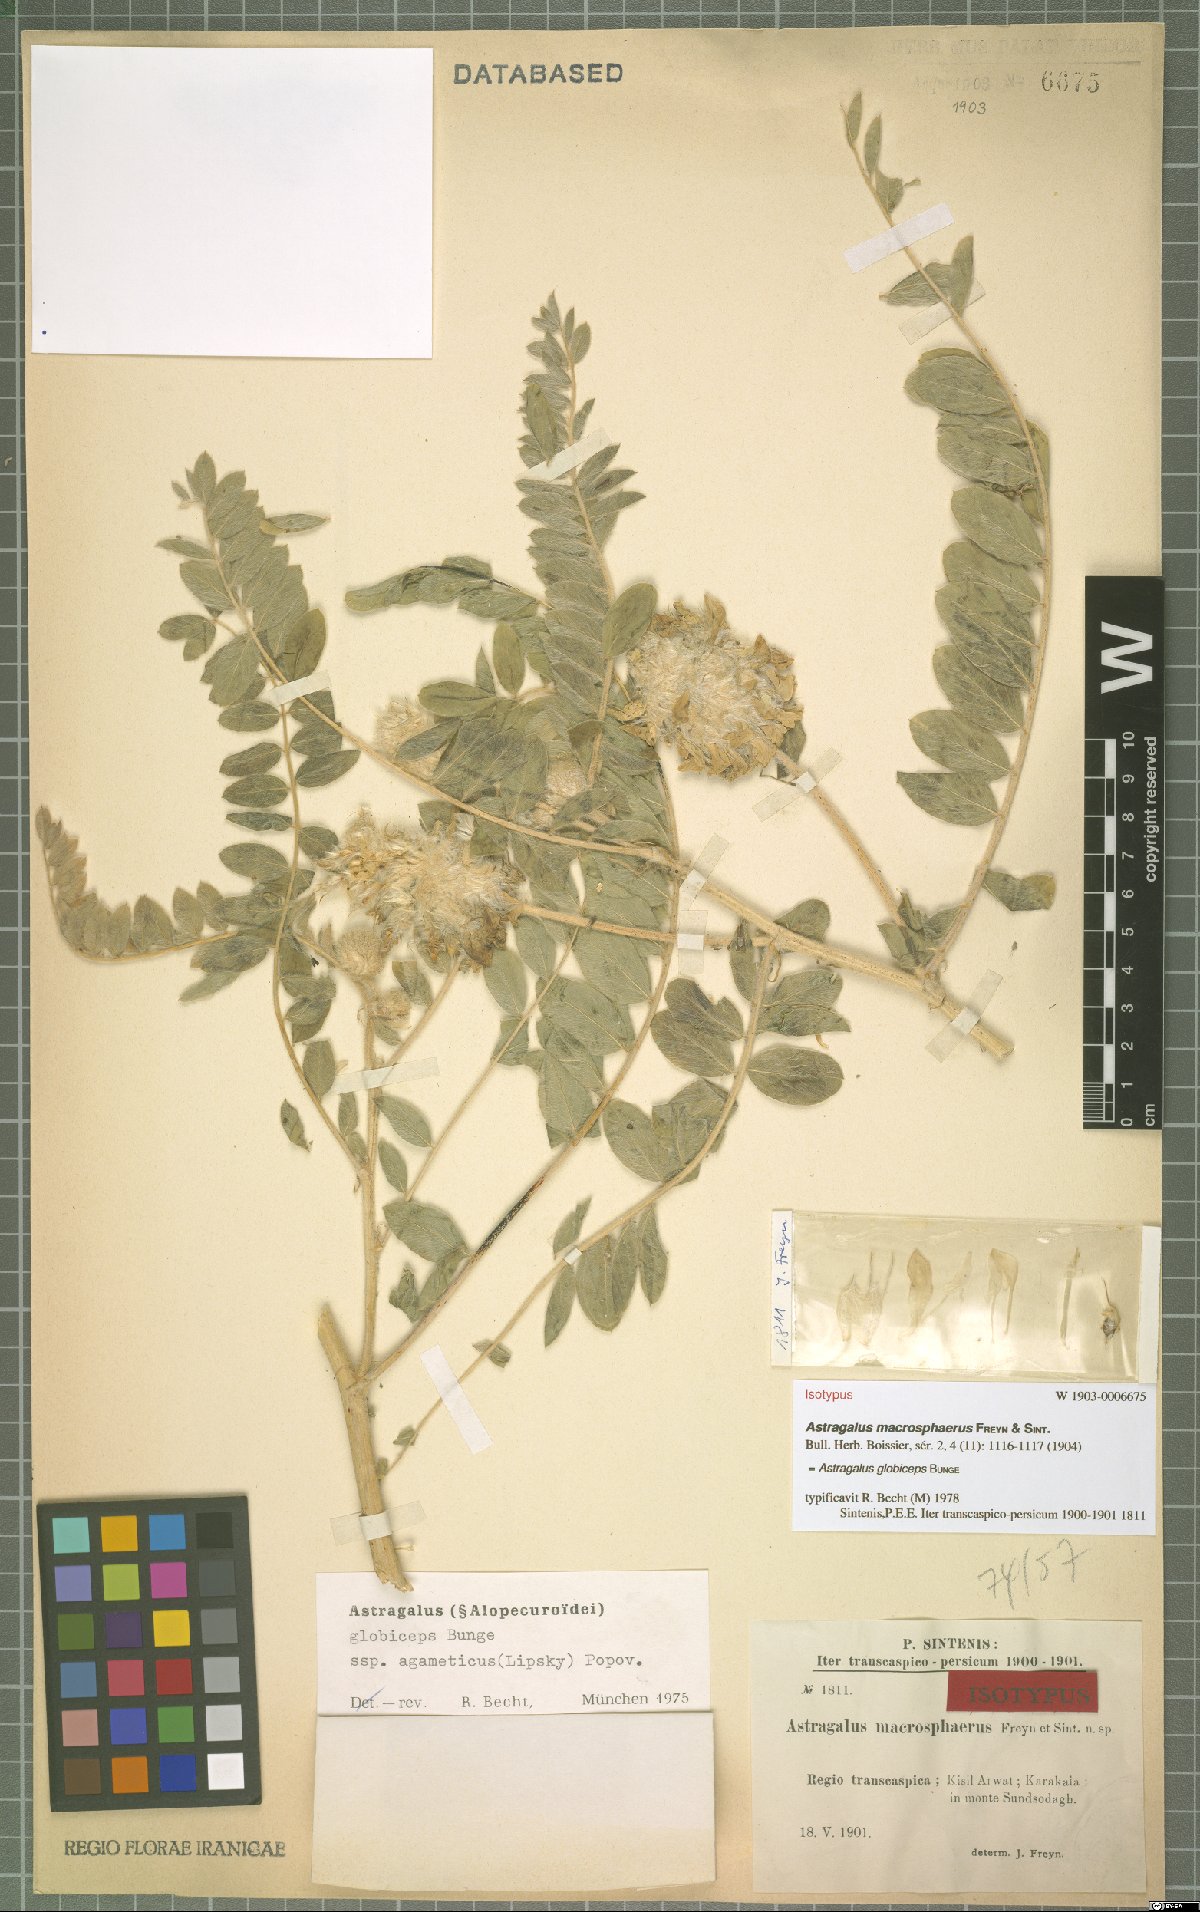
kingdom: Plantae
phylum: Tracheophyta
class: Magnoliopsida
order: Fabales
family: Fabaceae
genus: Astragalus
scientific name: Astragalus globiceps
